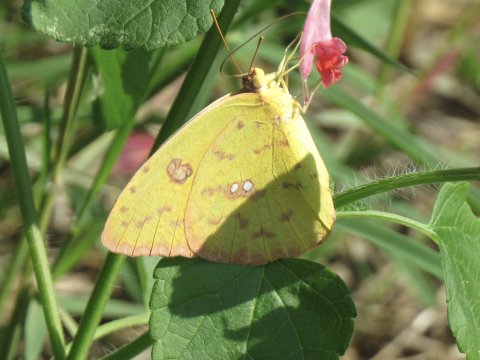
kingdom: Animalia
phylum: Arthropoda
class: Insecta
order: Lepidoptera
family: Pieridae
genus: Phoebis
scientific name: Phoebis sennae
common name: Cloudless Sulphur
